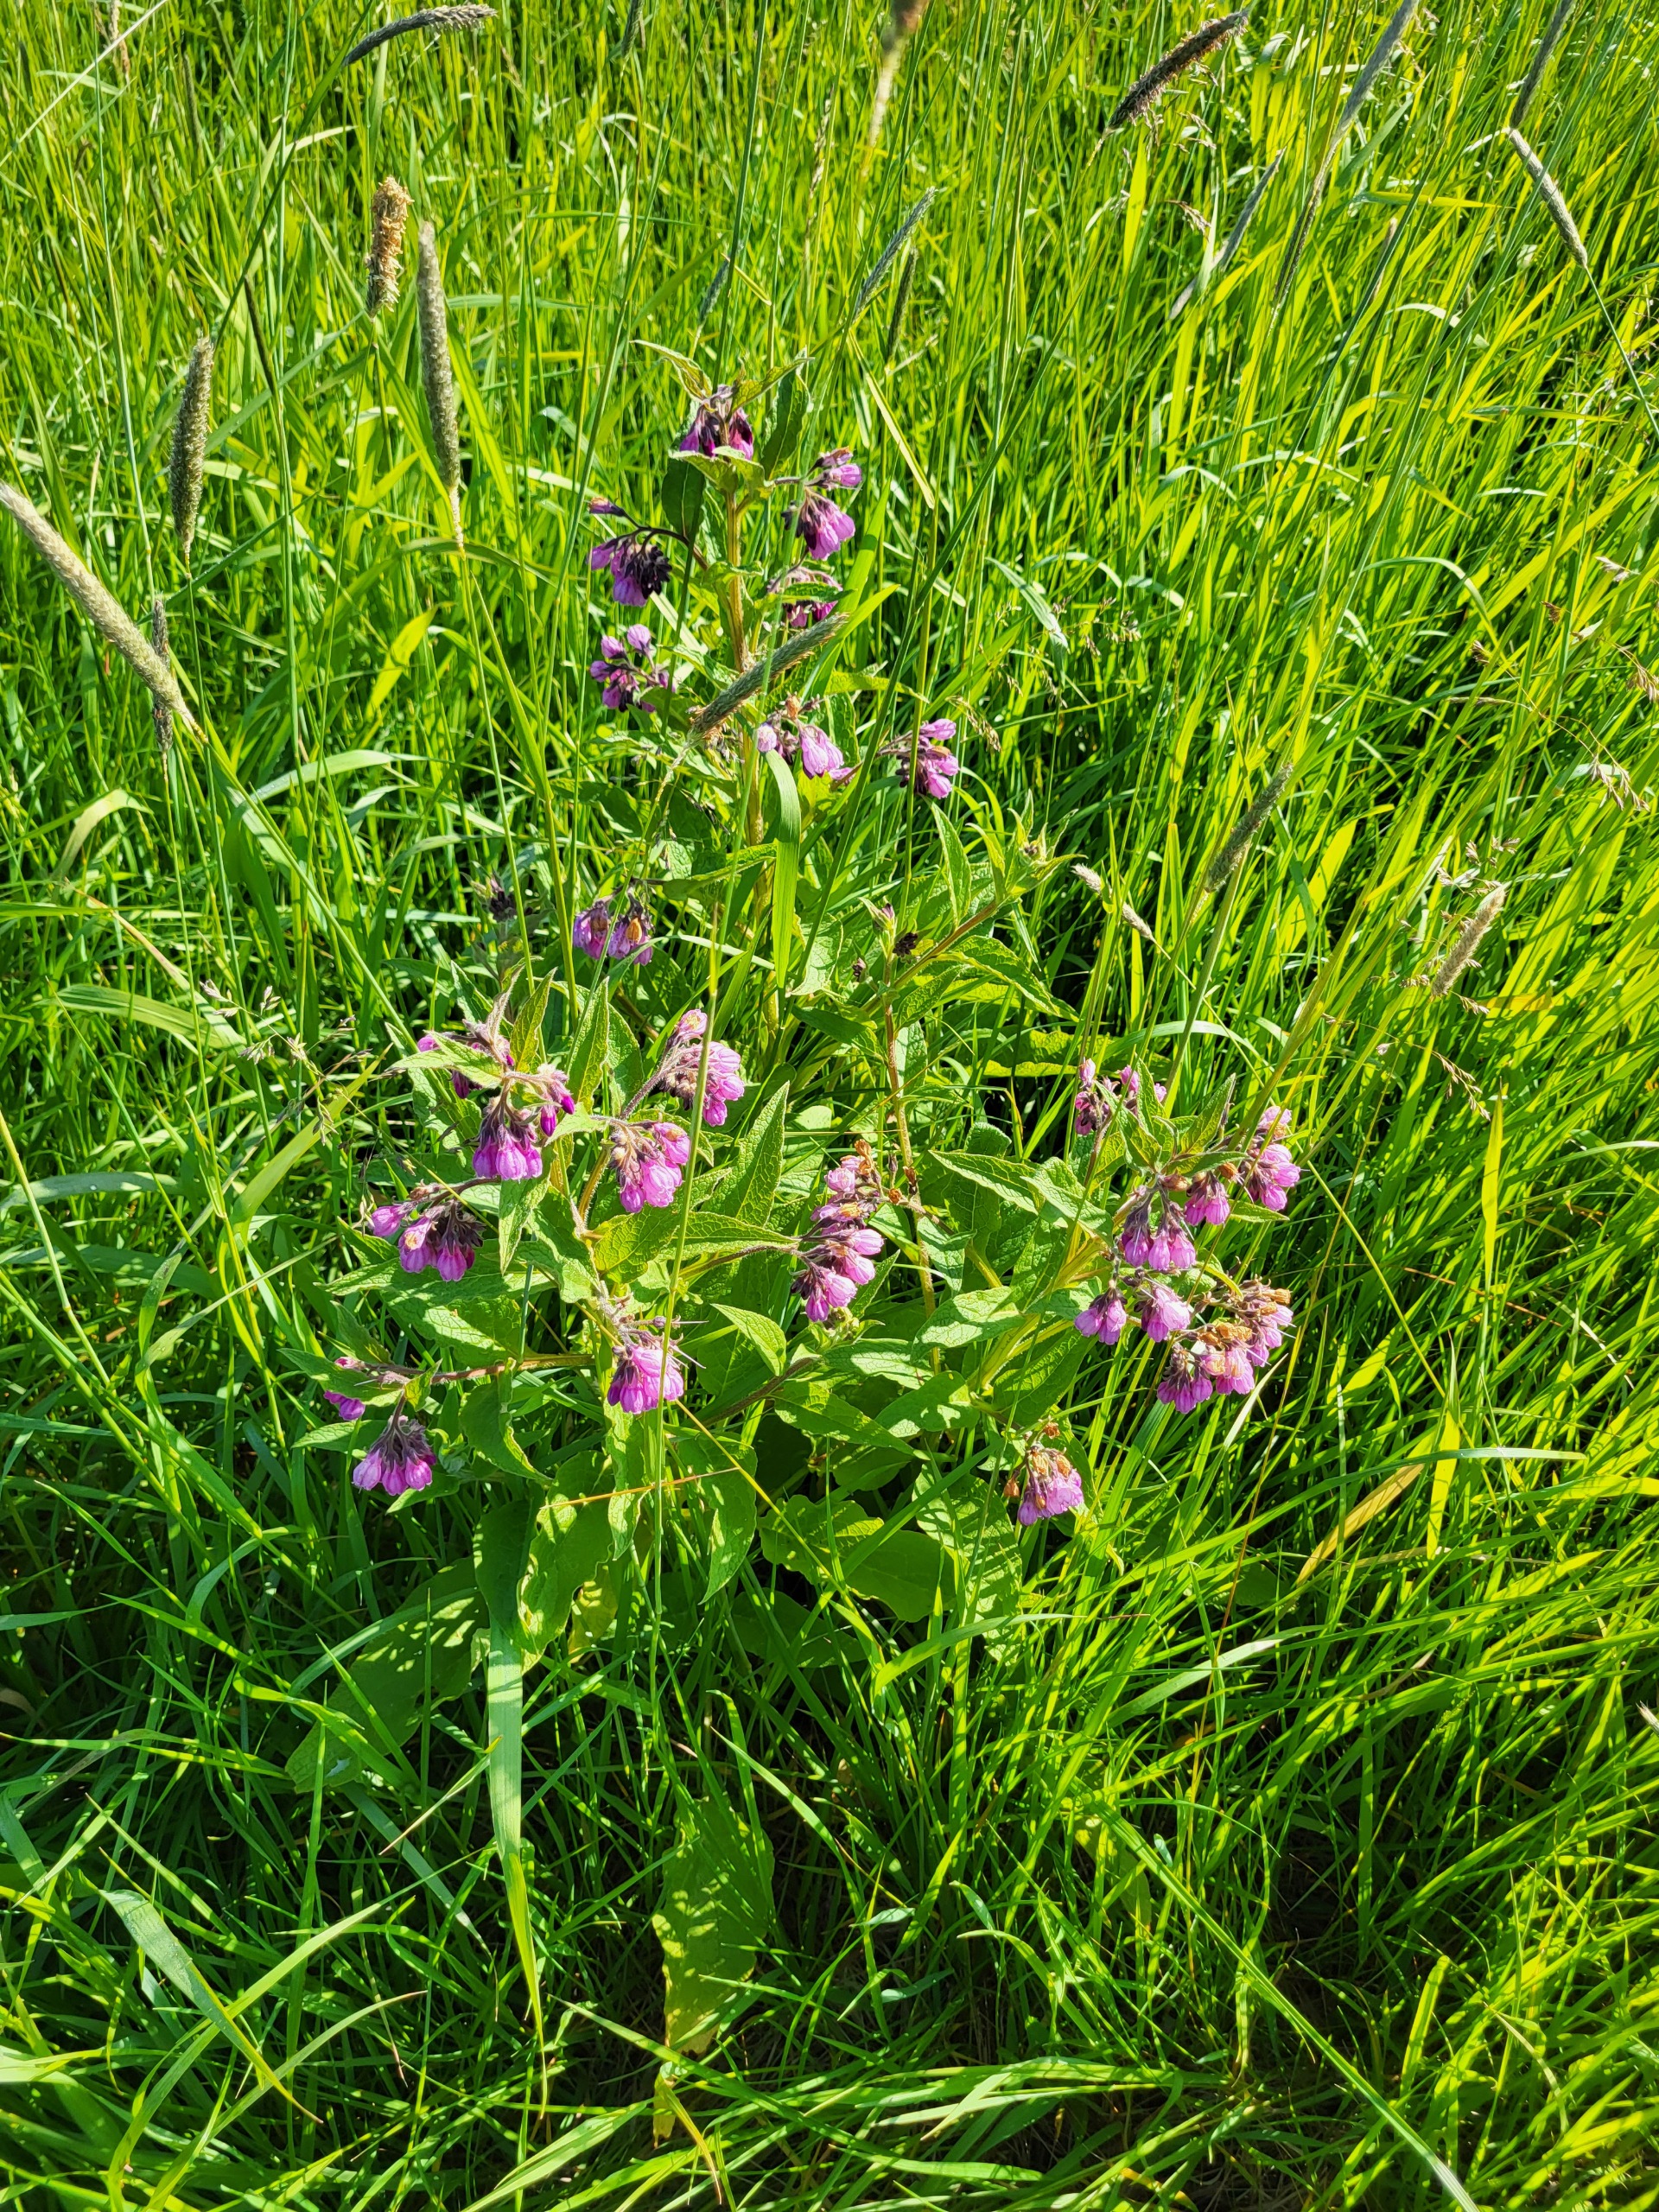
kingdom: Plantae
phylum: Tracheophyta
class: Magnoliopsida
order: Boraginales
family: Boraginaceae
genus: Symphytum
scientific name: Symphytum uplandicum
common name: Foder-kulsukker
